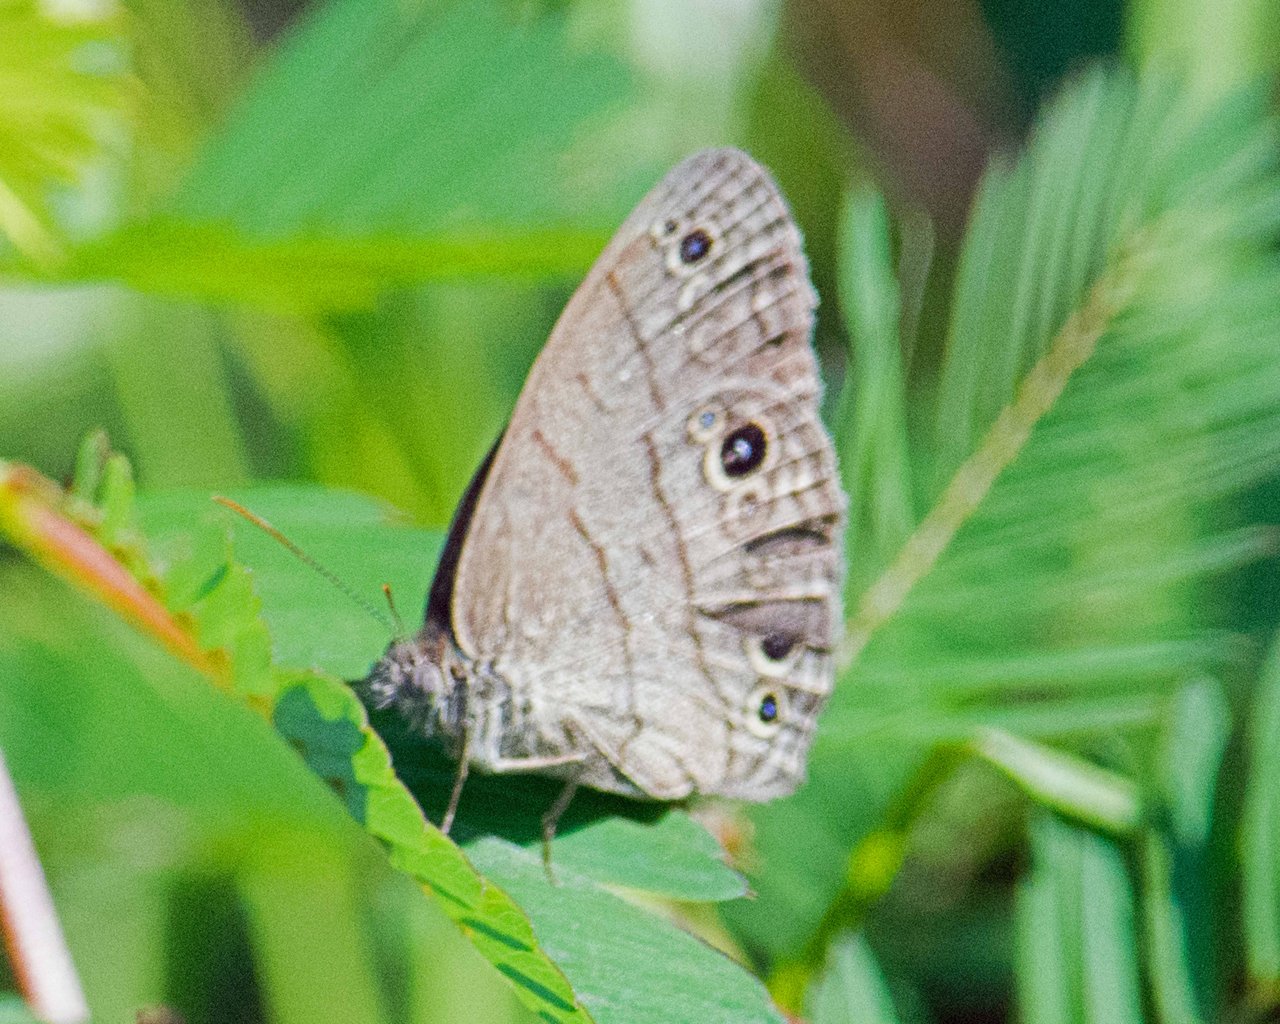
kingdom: Animalia
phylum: Arthropoda
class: Insecta
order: Lepidoptera
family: Nymphalidae
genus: Hermeuptychia
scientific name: Hermeuptychia hermes
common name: Carolina Satyr
